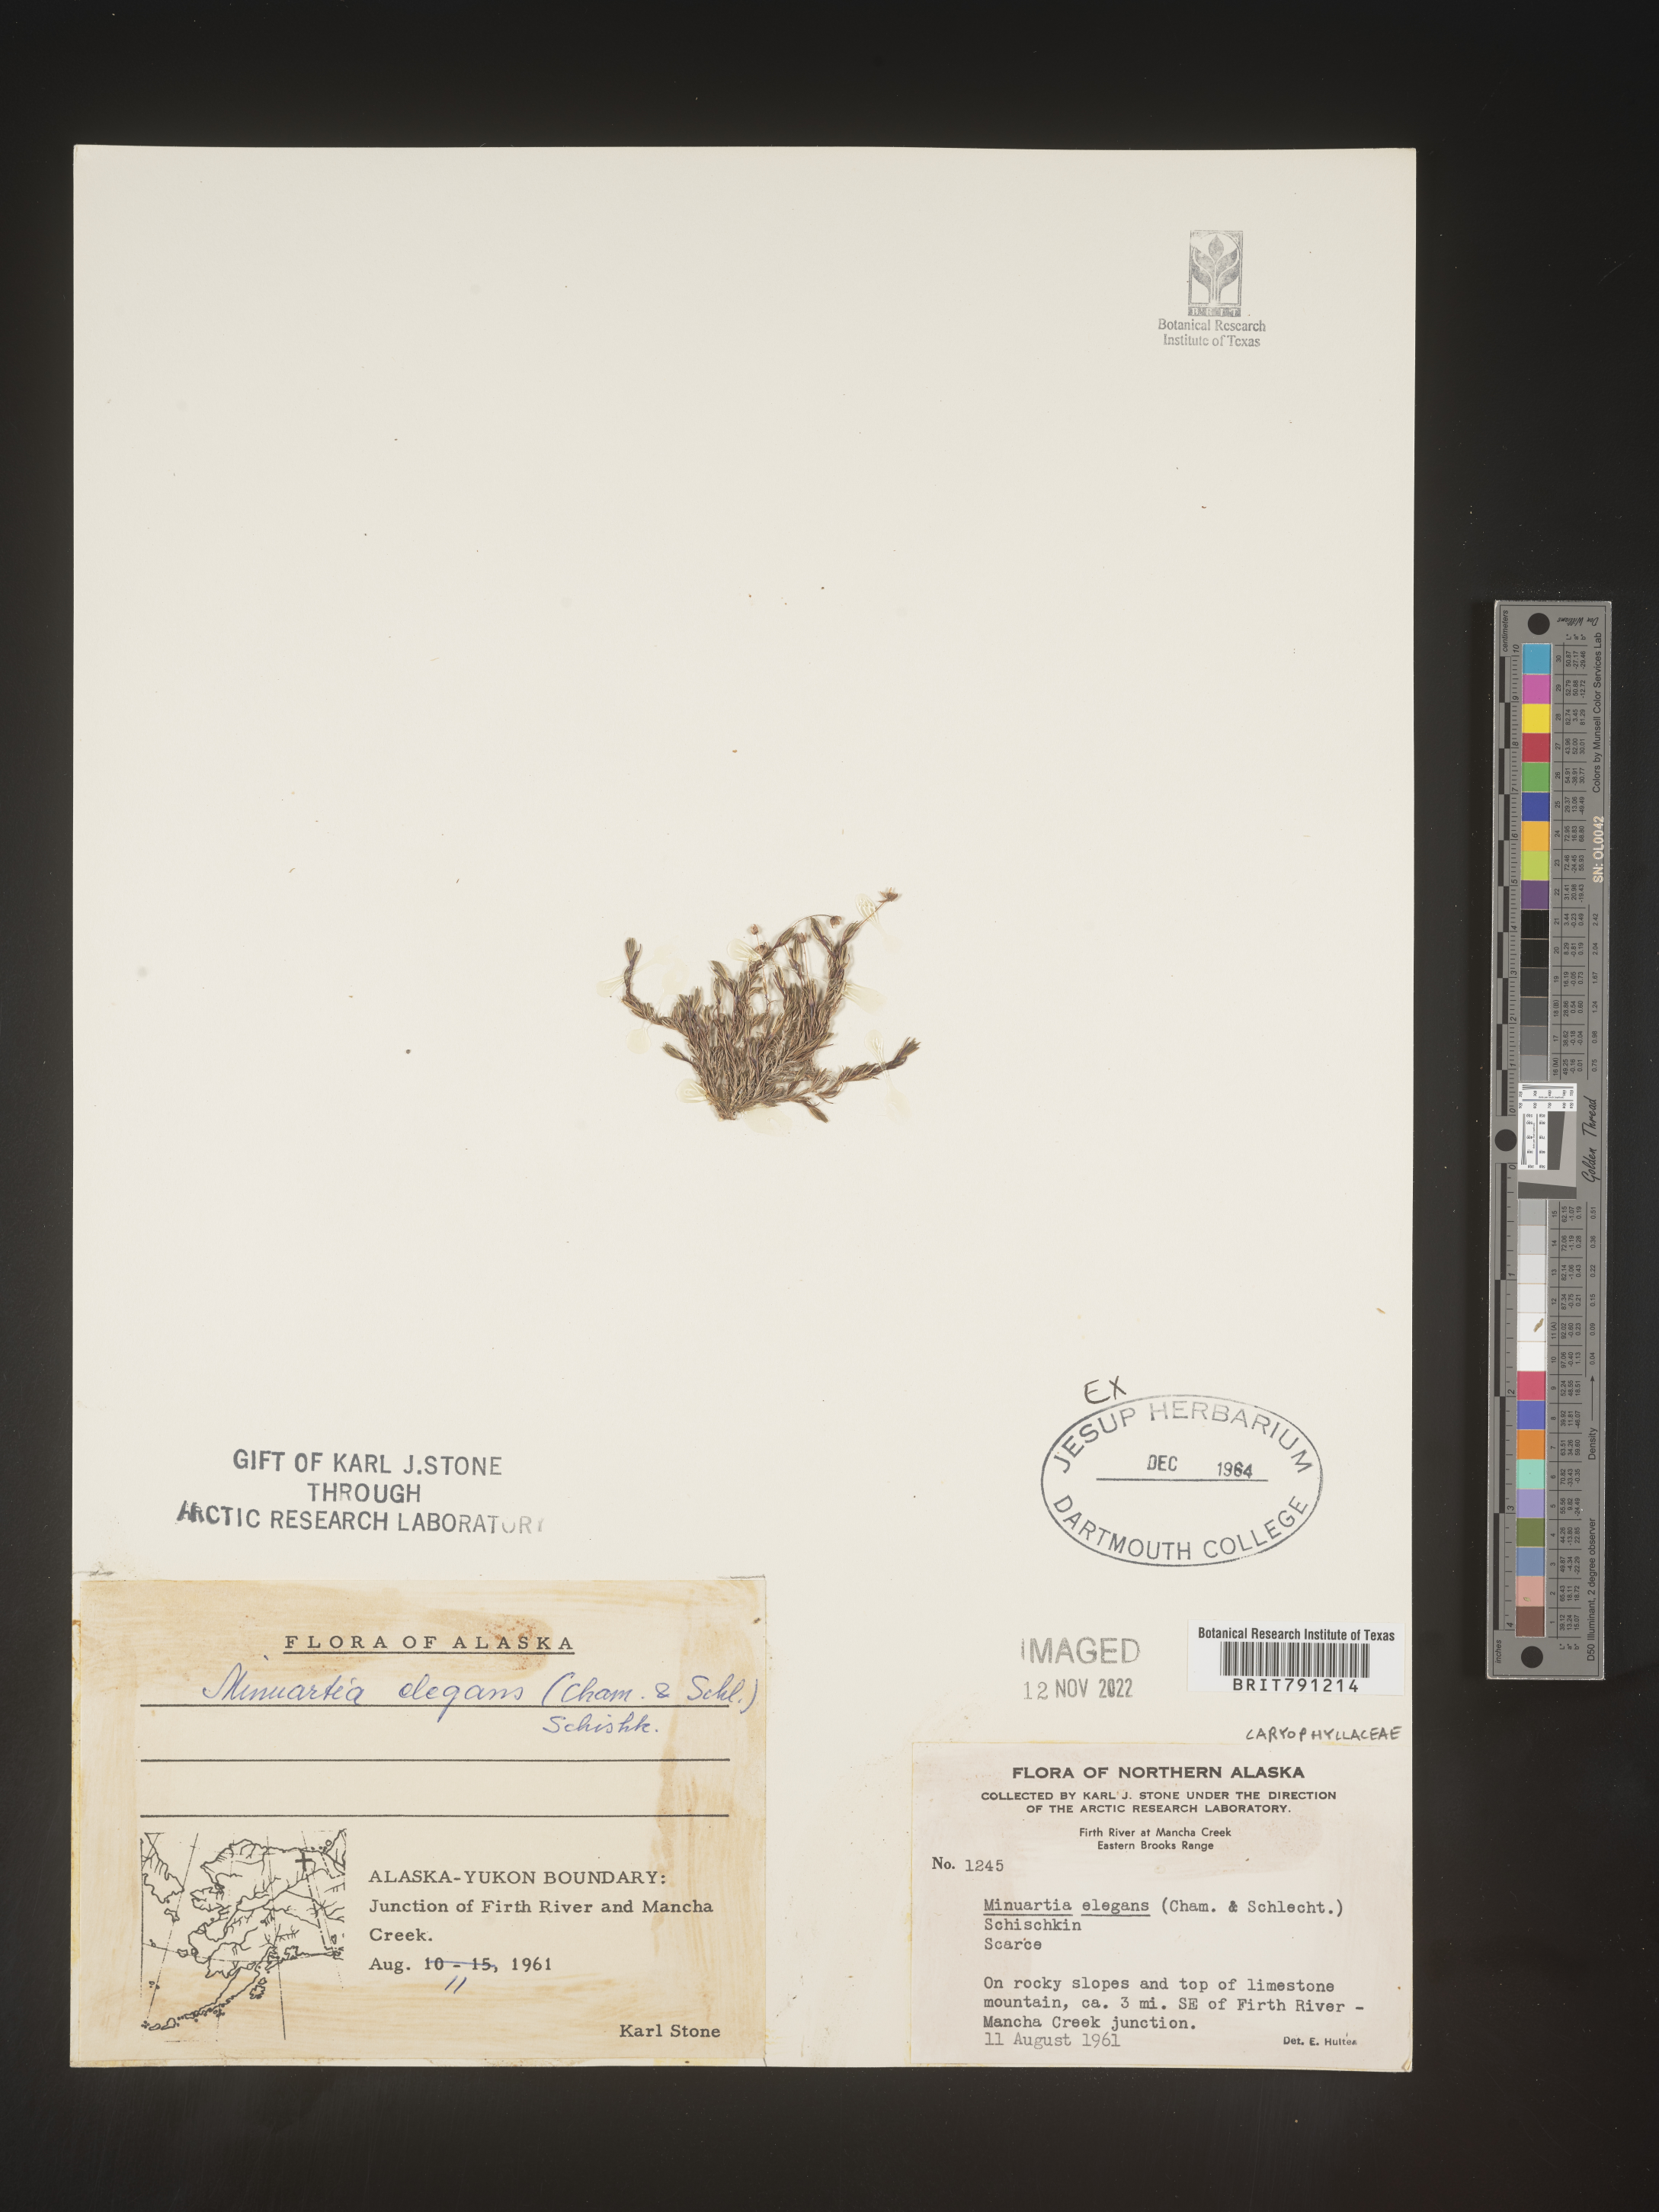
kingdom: Plantae
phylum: Tracheophyta
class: Magnoliopsida
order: Caryophyllales
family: Caryophyllaceae
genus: Minuartia
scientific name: Minuartia
